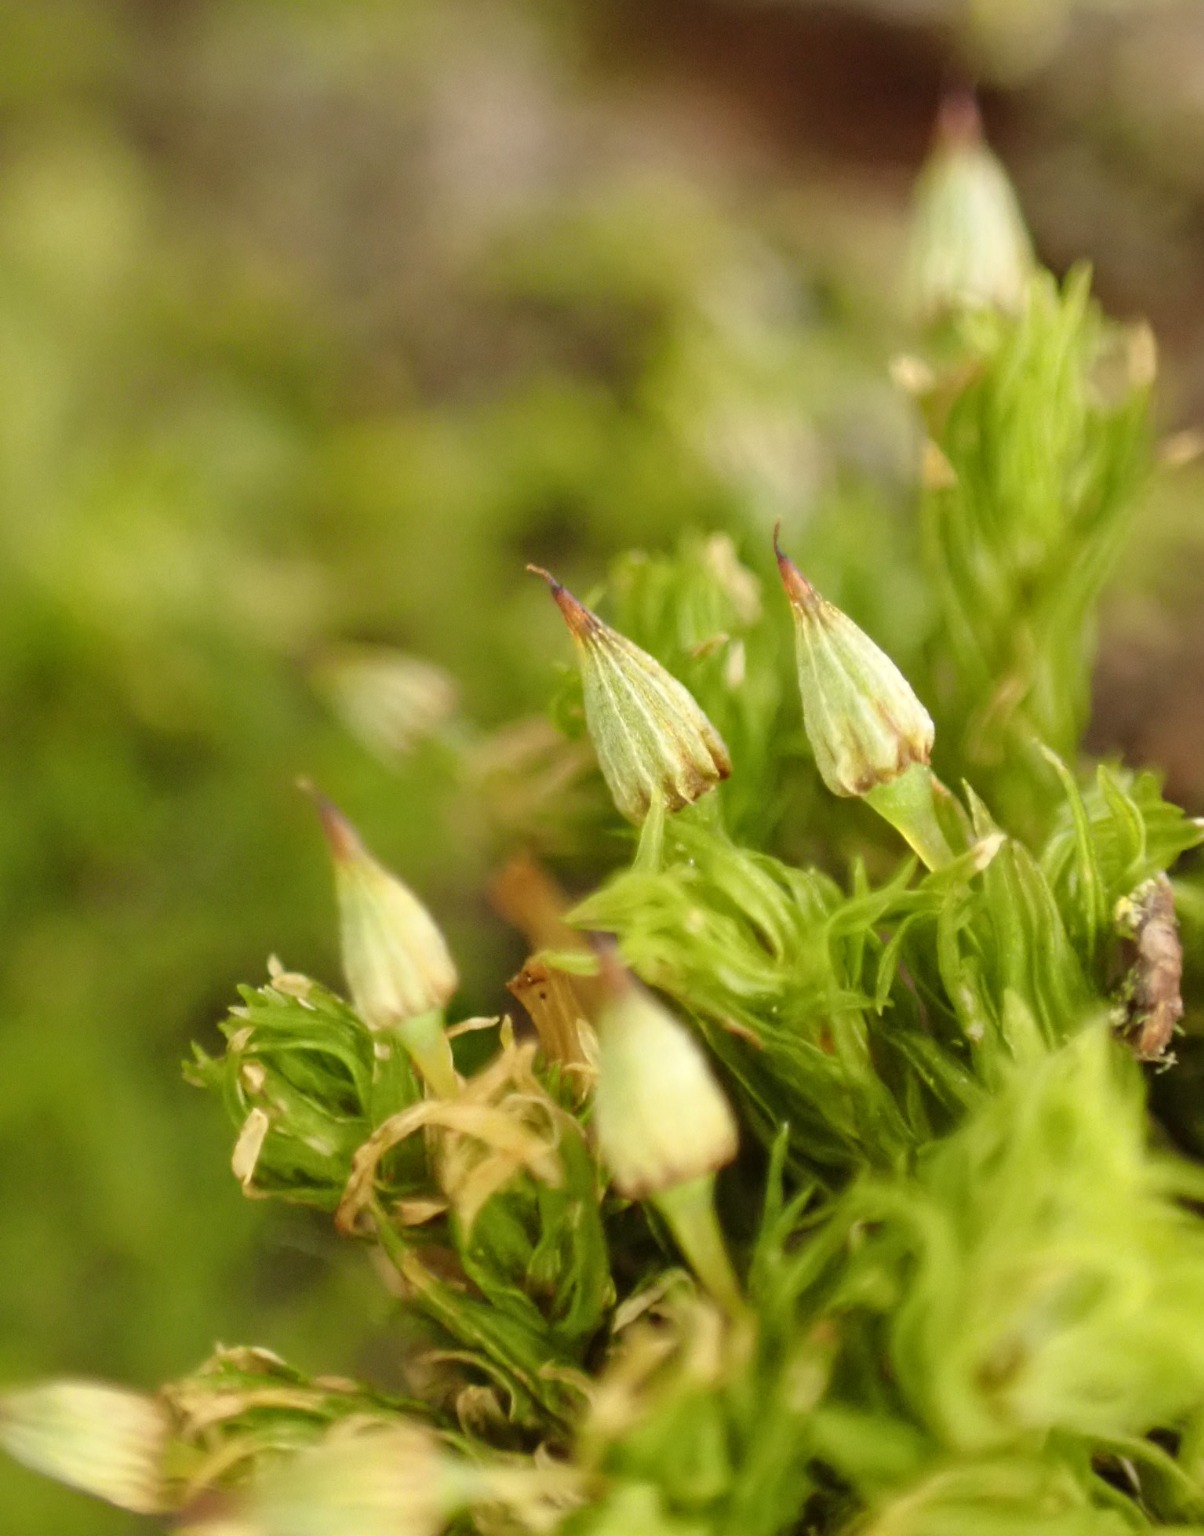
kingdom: Plantae
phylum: Bryophyta
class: Bryopsida
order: Orthotrichales
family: Orthotrichaceae
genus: Orthotrichum
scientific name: Orthotrichum pulchellum
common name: Smuk furehætte
